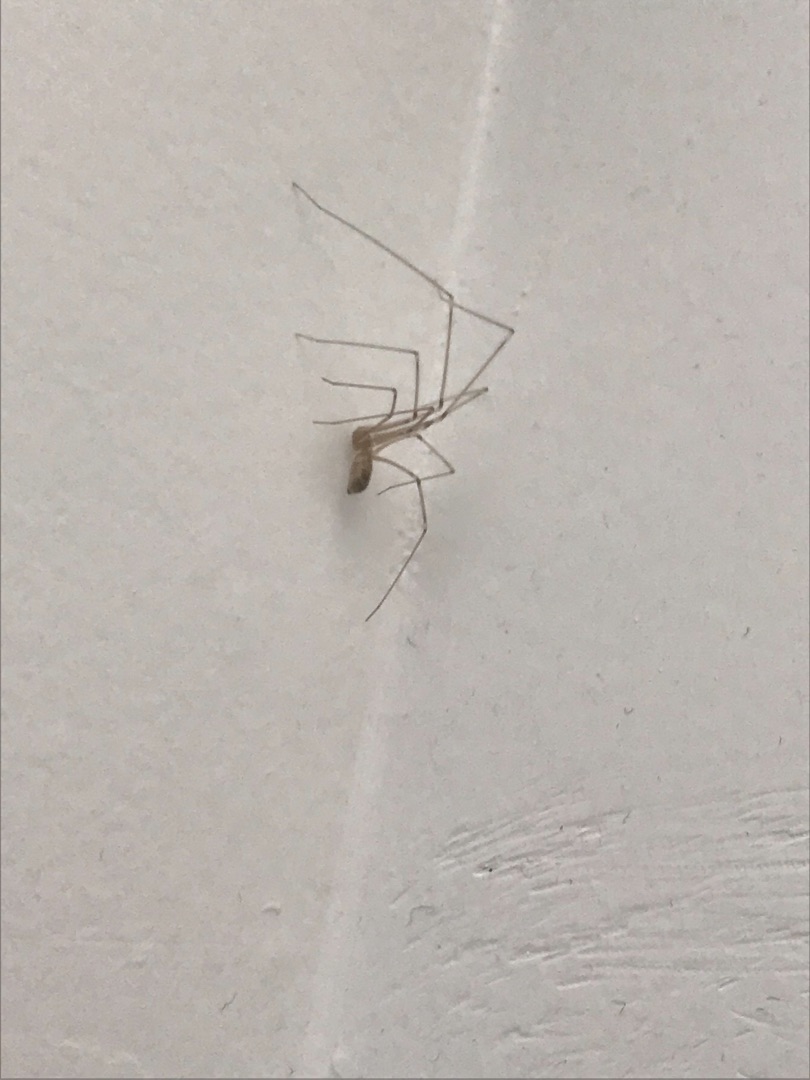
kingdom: Animalia
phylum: Arthropoda
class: Arachnida
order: Araneae
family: Pholcidae
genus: Pholcus
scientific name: Pholcus phalangioides
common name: Mejeredderkop
